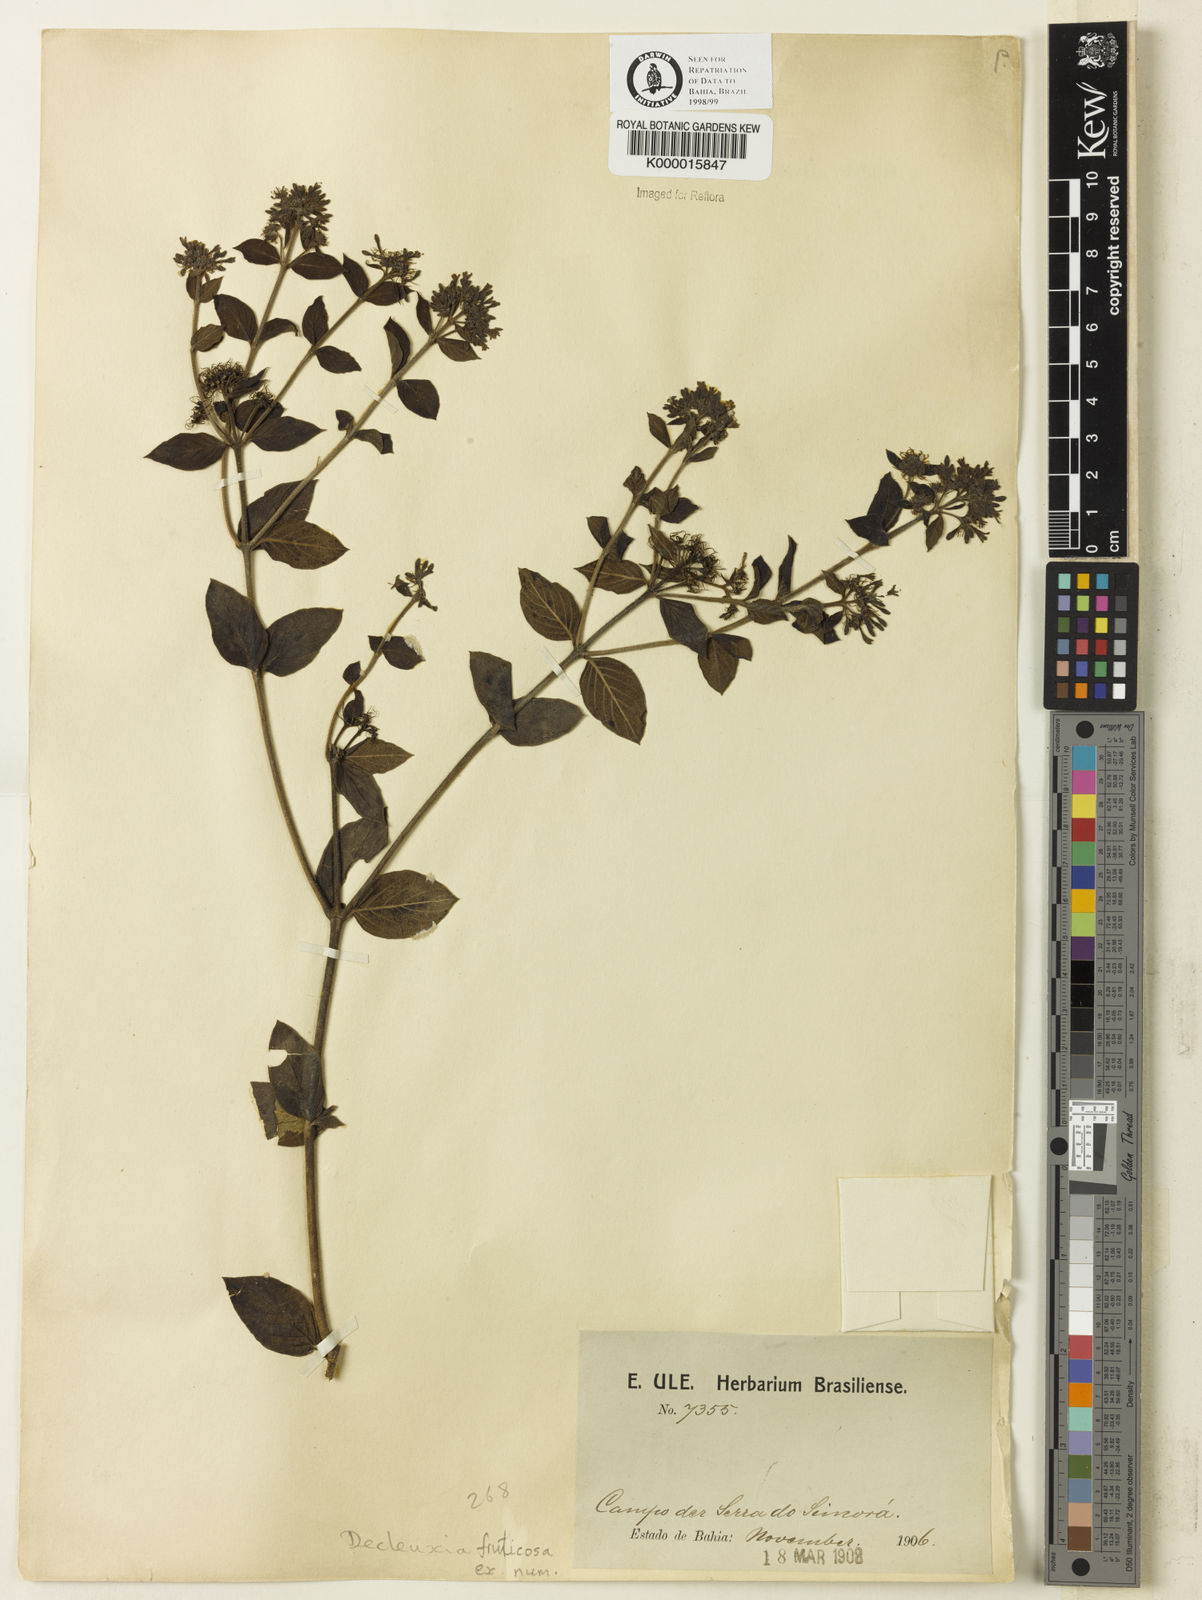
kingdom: Plantae
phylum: Tracheophyta
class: Magnoliopsida
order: Gentianales
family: Rubiaceae
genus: Declieuxia
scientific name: Declieuxia fruticosa
